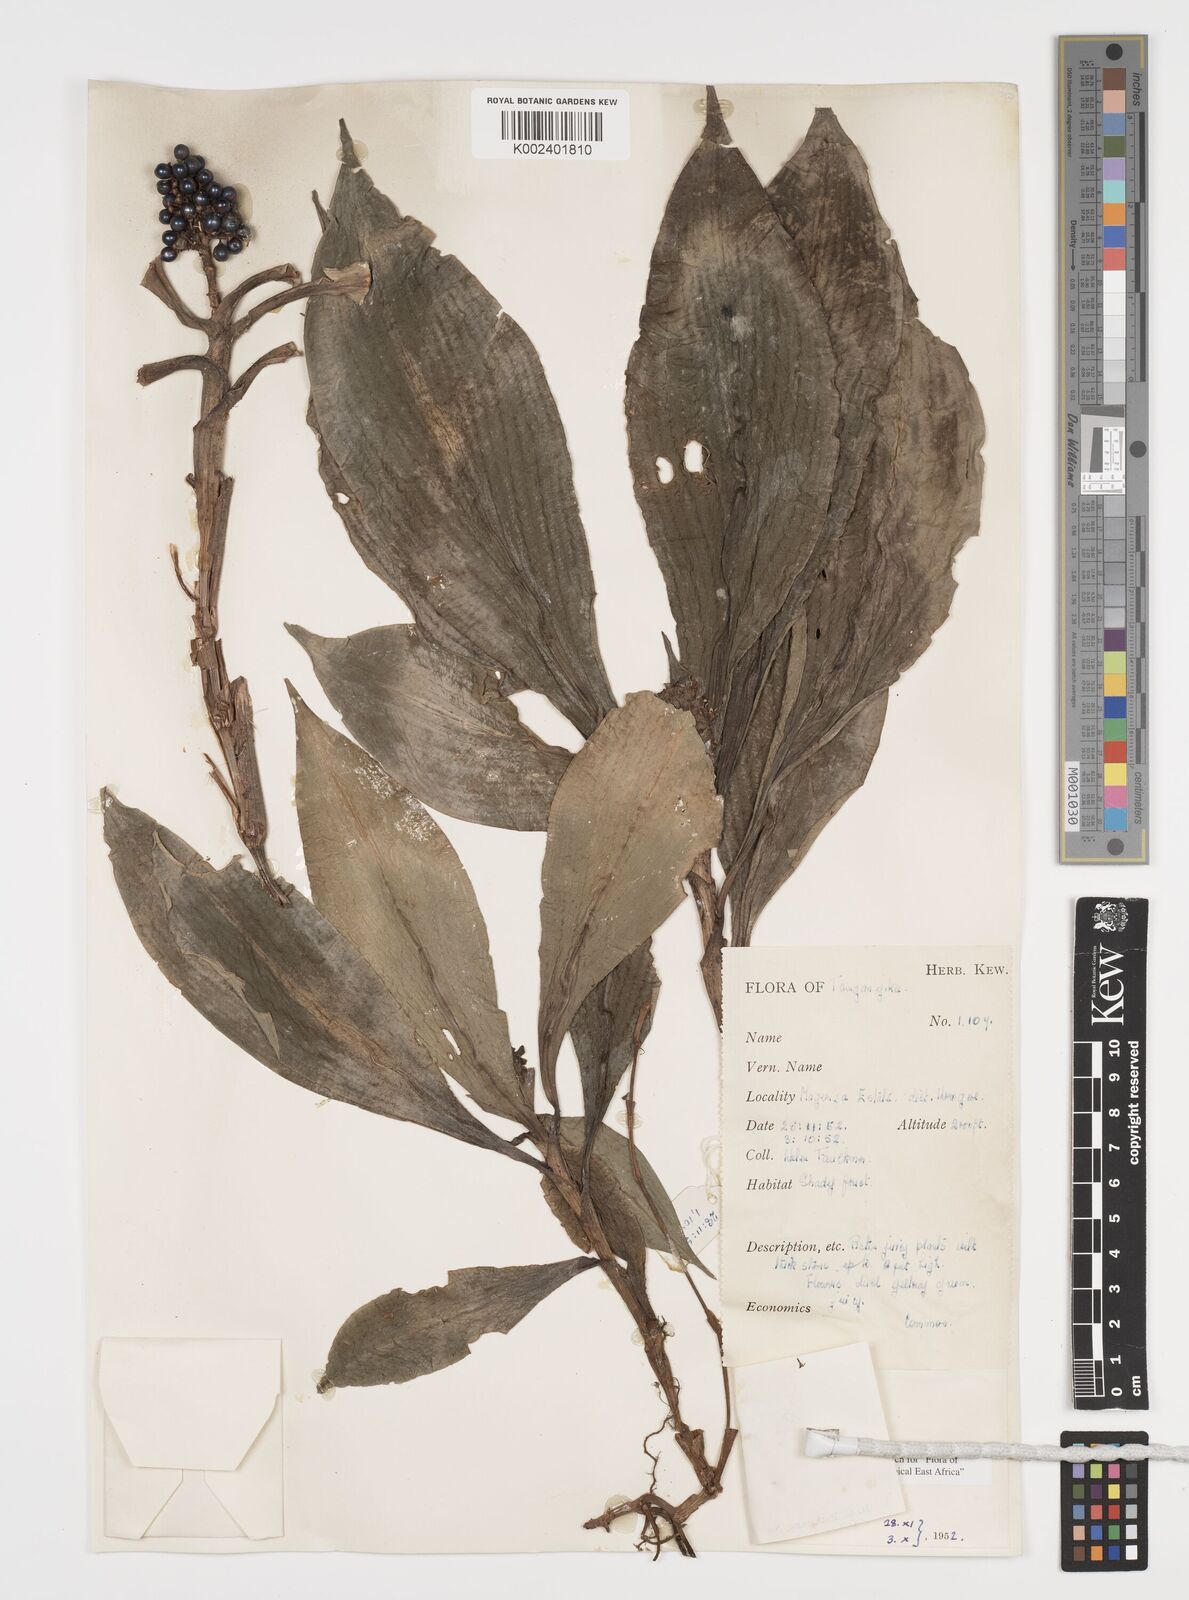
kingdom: Plantae
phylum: Tracheophyta
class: Liliopsida
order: Commelinales
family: Commelinaceae
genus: Pollia
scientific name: Pollia condensata
